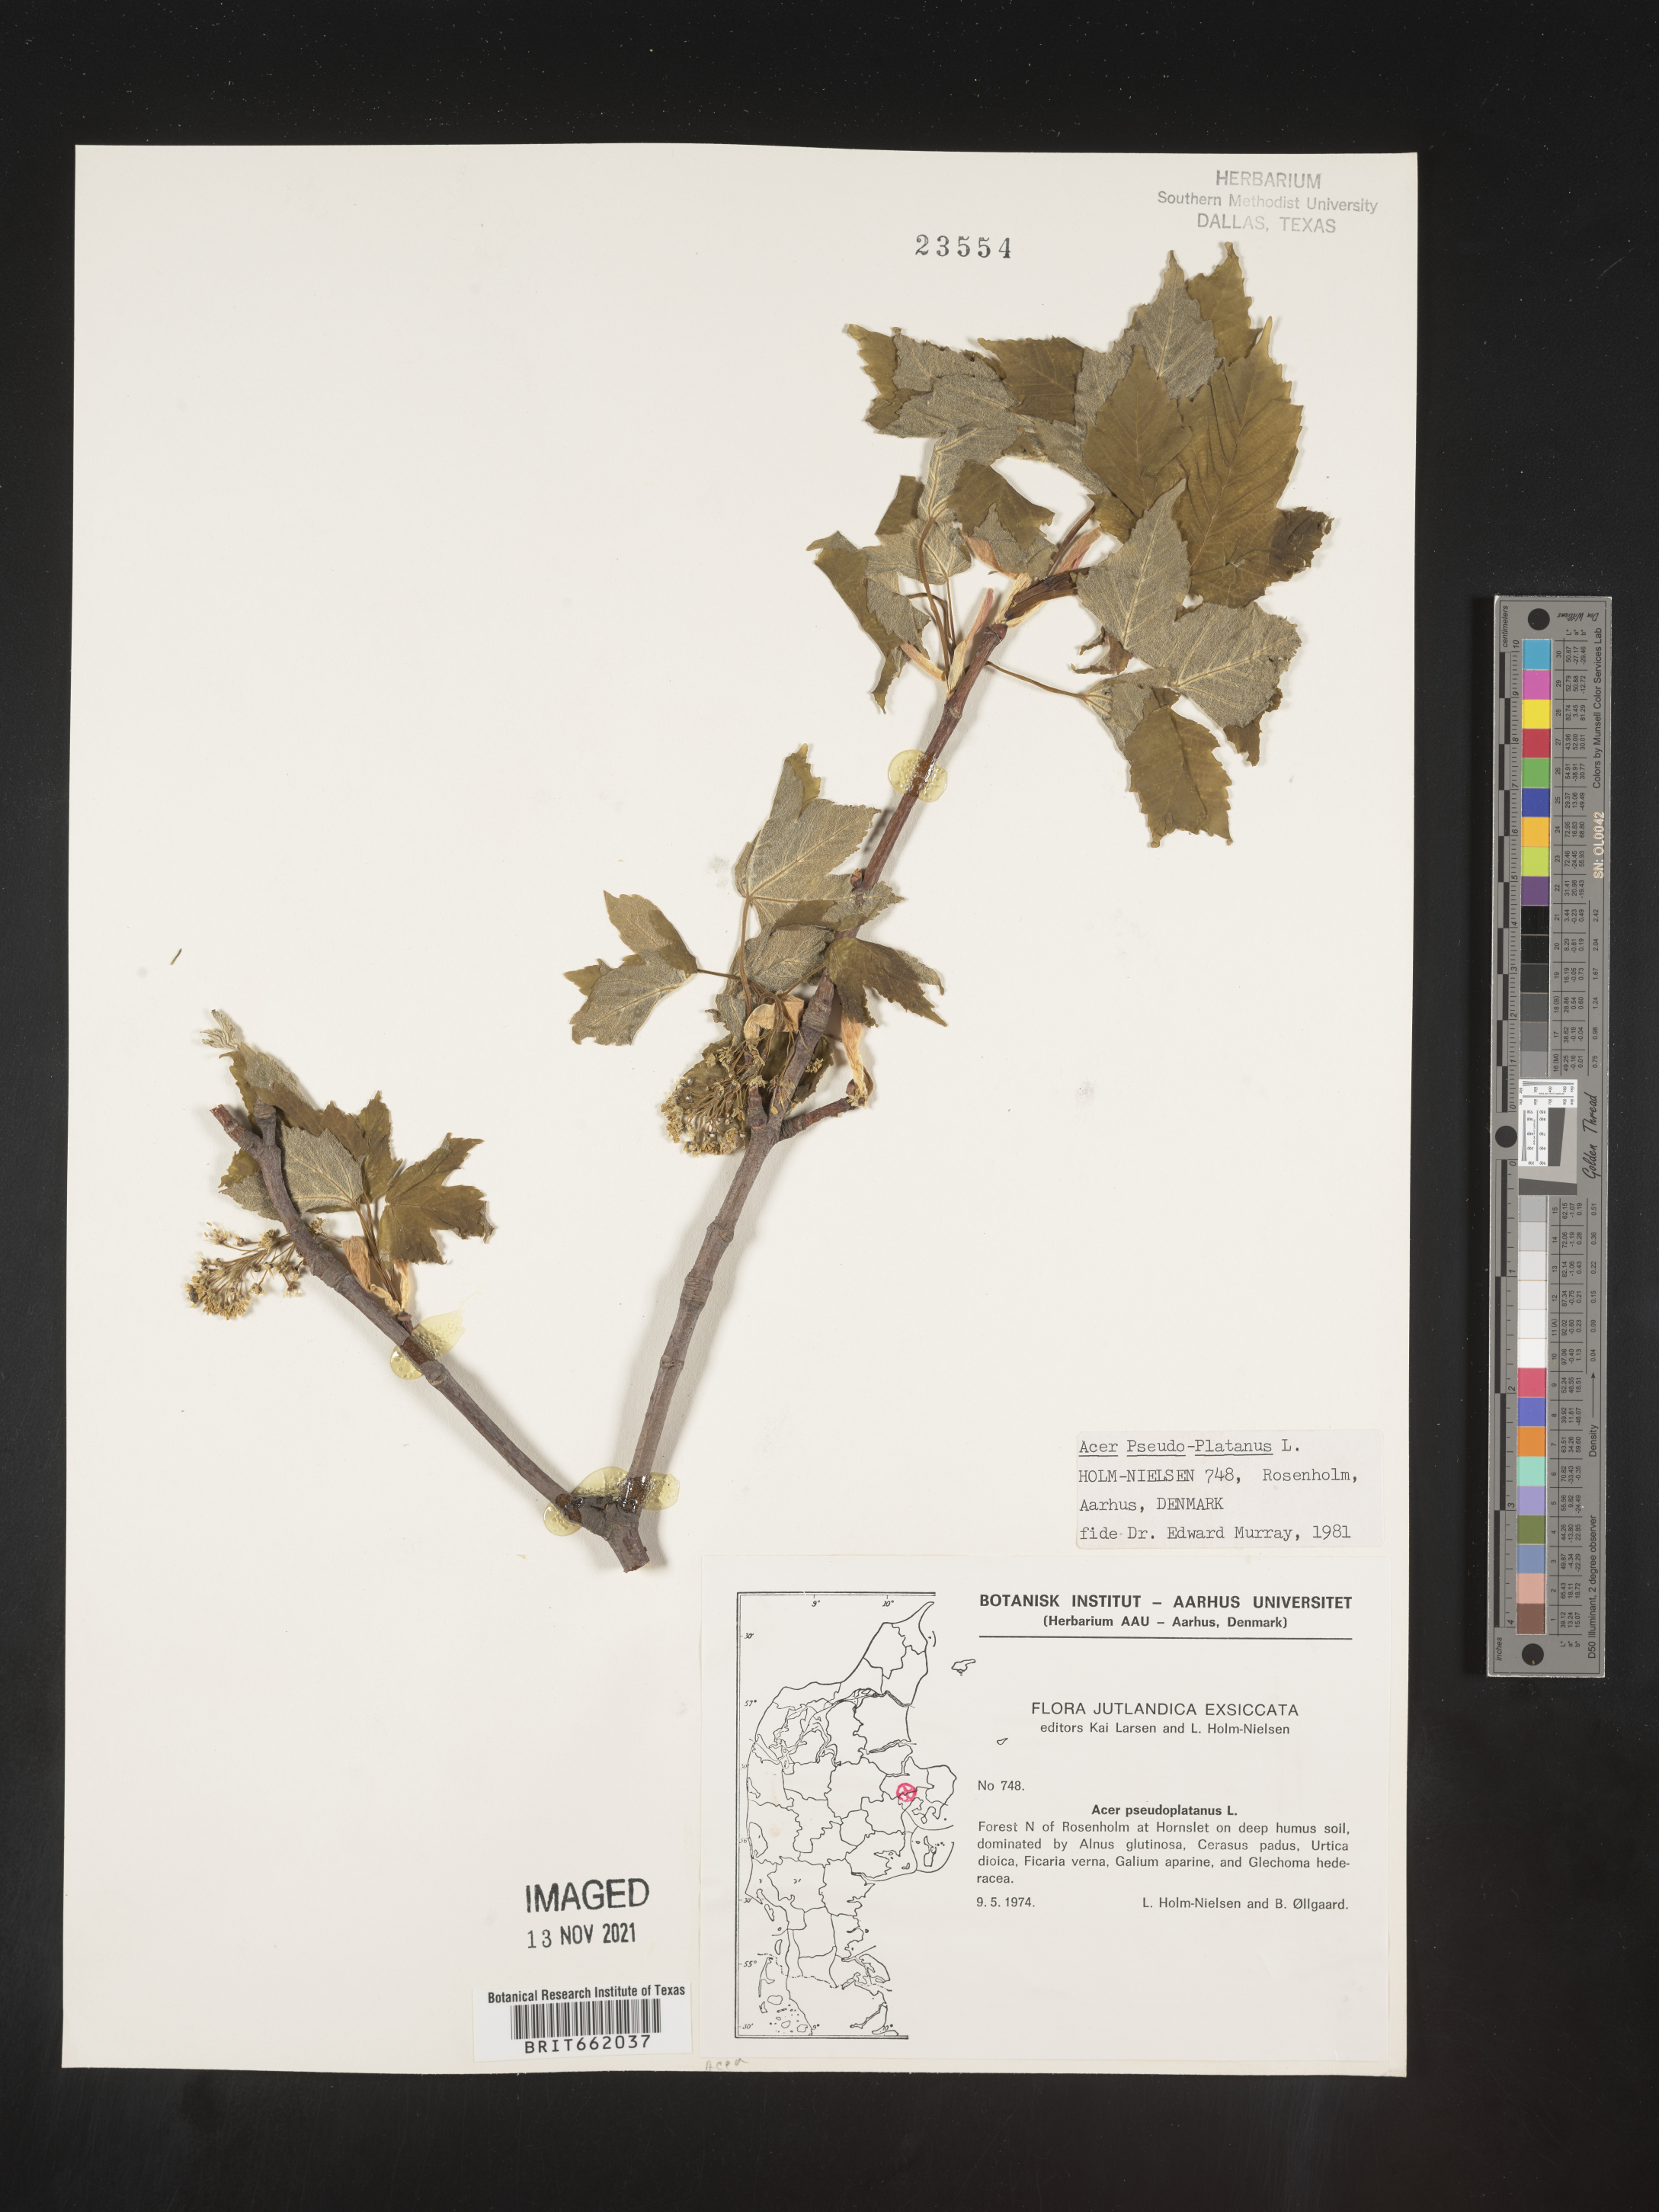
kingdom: Plantae
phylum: Tracheophyta
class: Magnoliopsida
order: Sapindales
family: Sapindaceae
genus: Acer
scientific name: Acer
